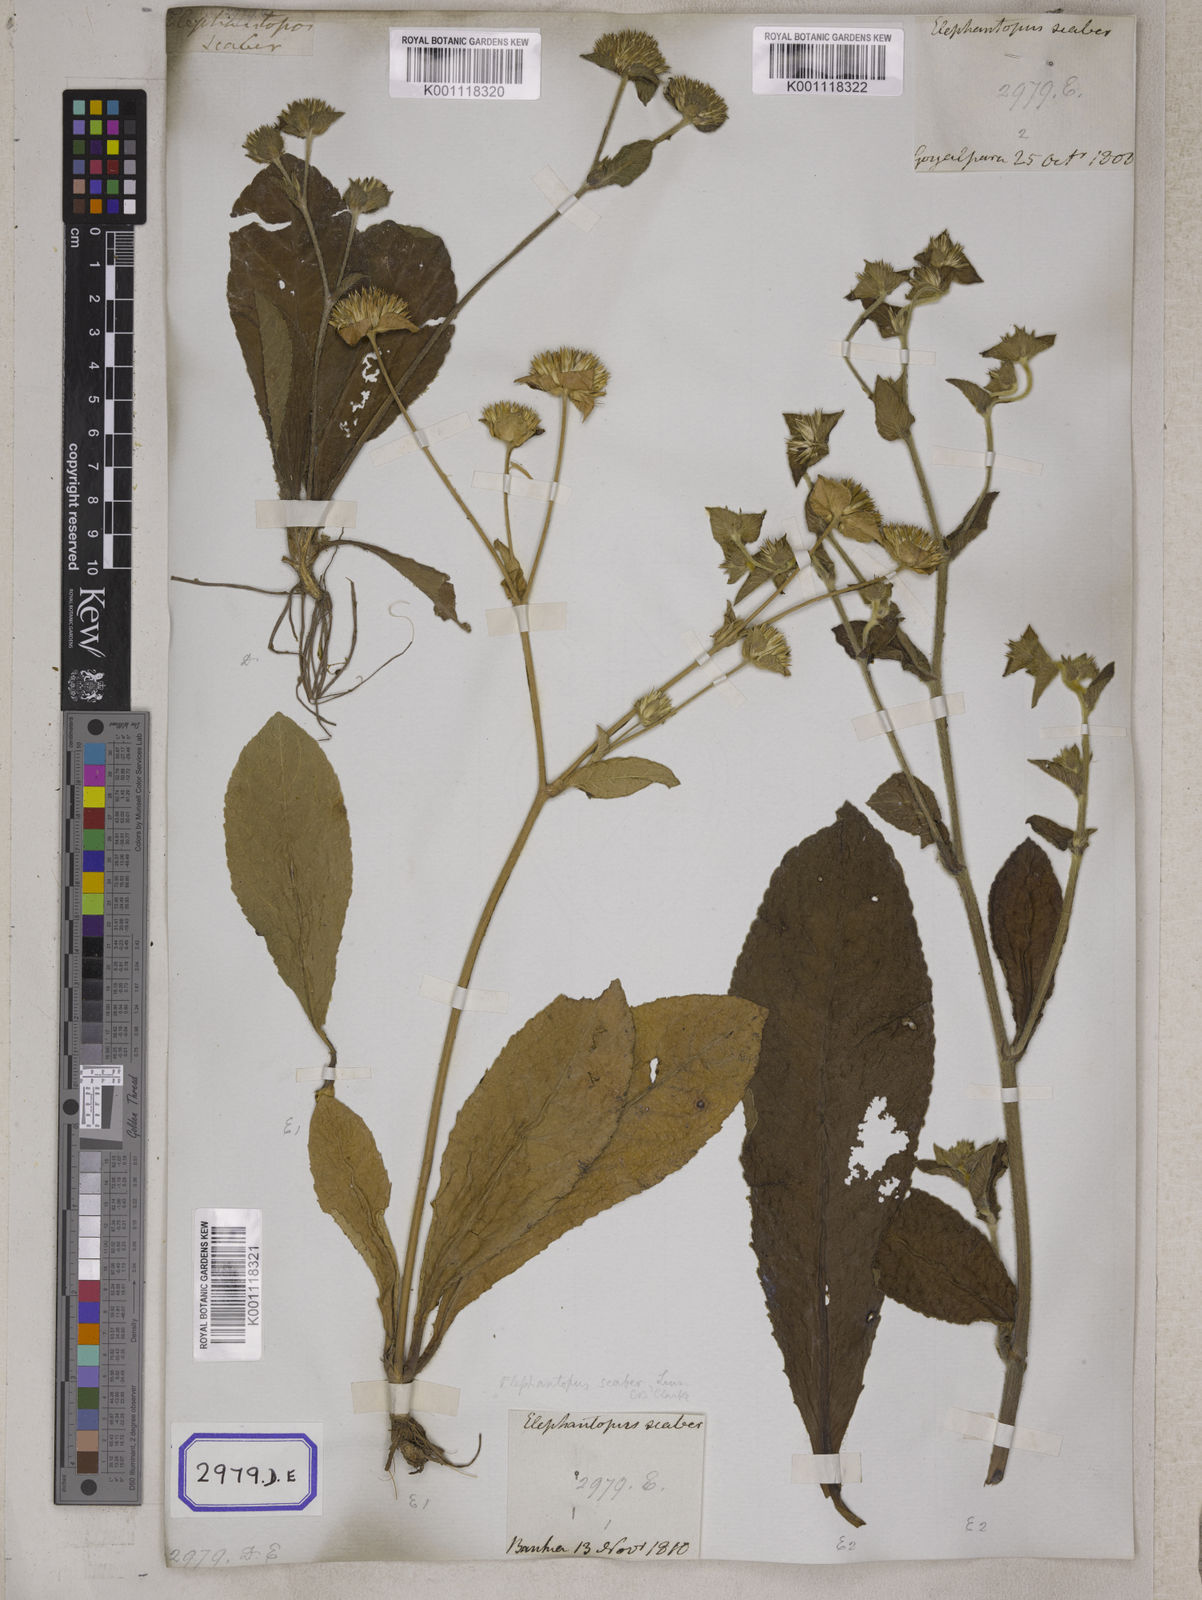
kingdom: Plantae
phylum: Tracheophyta
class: Magnoliopsida
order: Asterales
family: Asteraceae
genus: Elephantopus
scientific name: Elephantopus scaber
